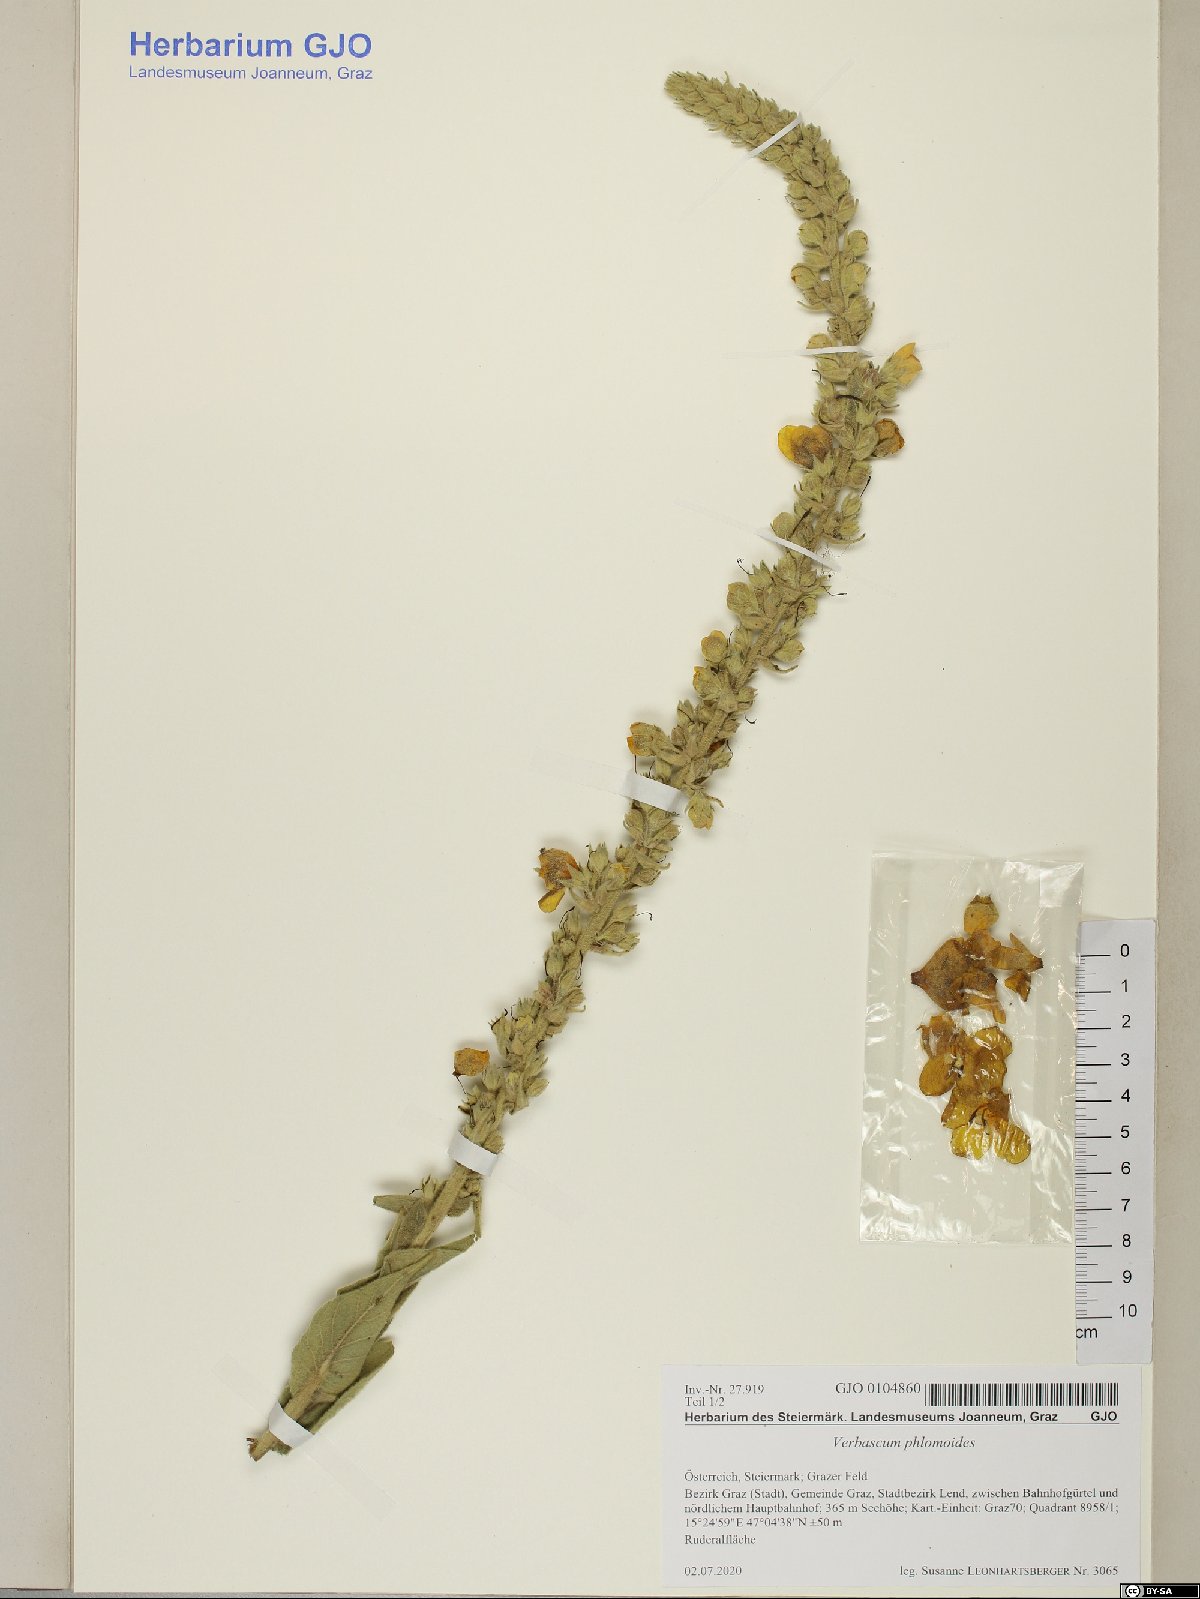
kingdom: Plantae
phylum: Tracheophyta
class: Magnoliopsida
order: Lamiales
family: Scrophulariaceae
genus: Verbascum
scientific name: Verbascum phlomoides
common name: Orange mullein
